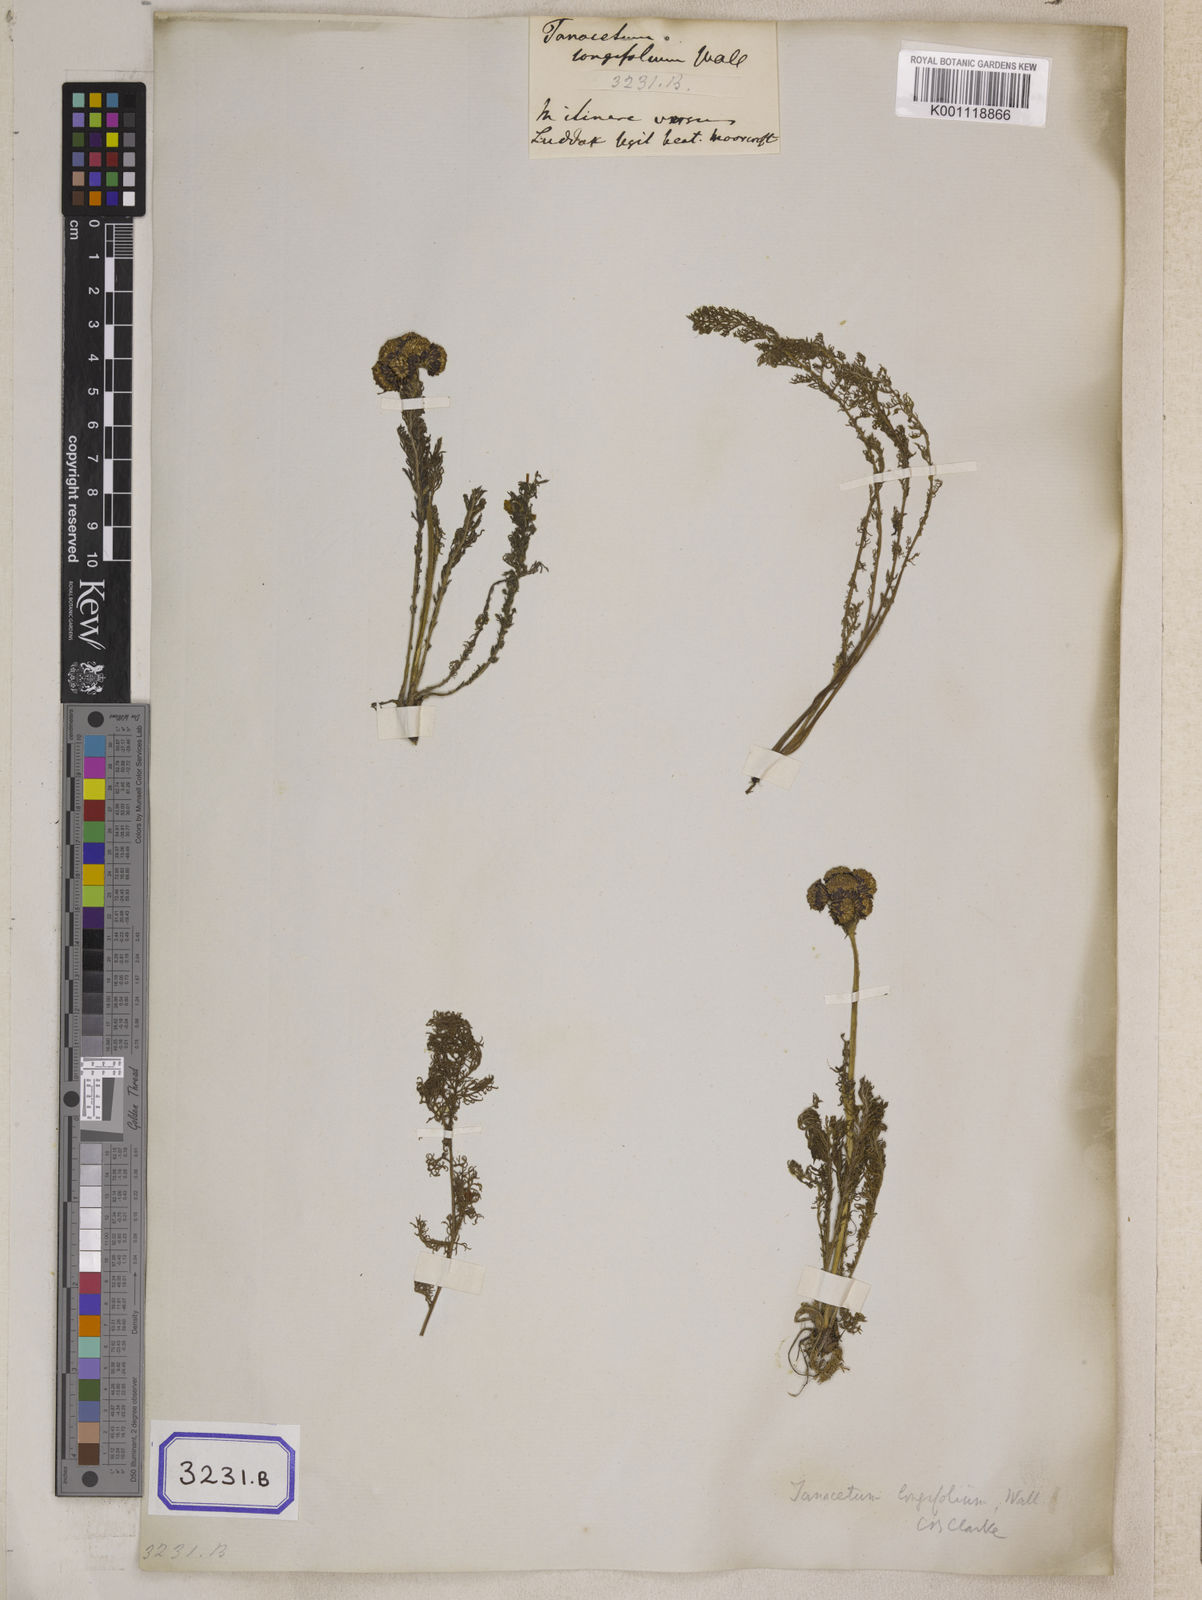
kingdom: Plantae
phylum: Tracheophyta
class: Magnoliopsida
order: Asterales
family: Asteraceae
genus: Hippolytia
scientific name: Hippolytia longifolia
